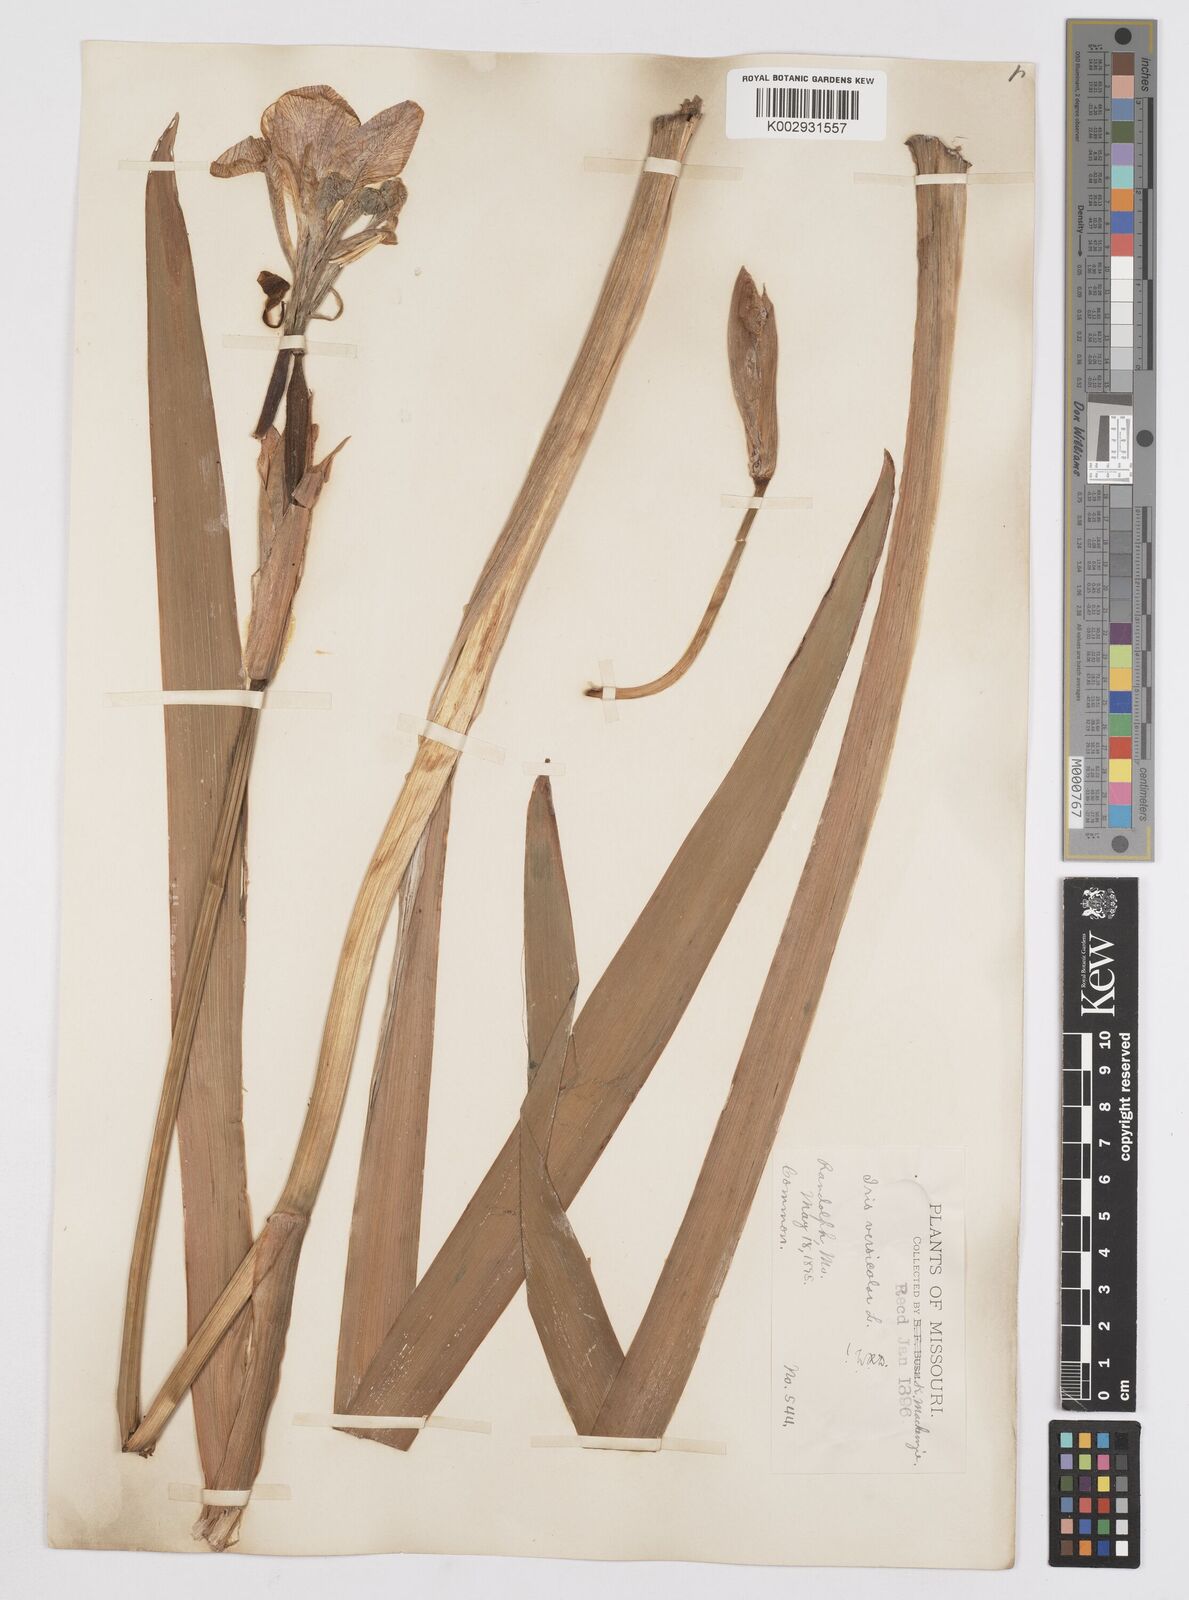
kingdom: Plantae
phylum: Tracheophyta
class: Liliopsida
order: Asparagales
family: Iridaceae
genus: Iris
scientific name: Iris virginica
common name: Southern blue flag
